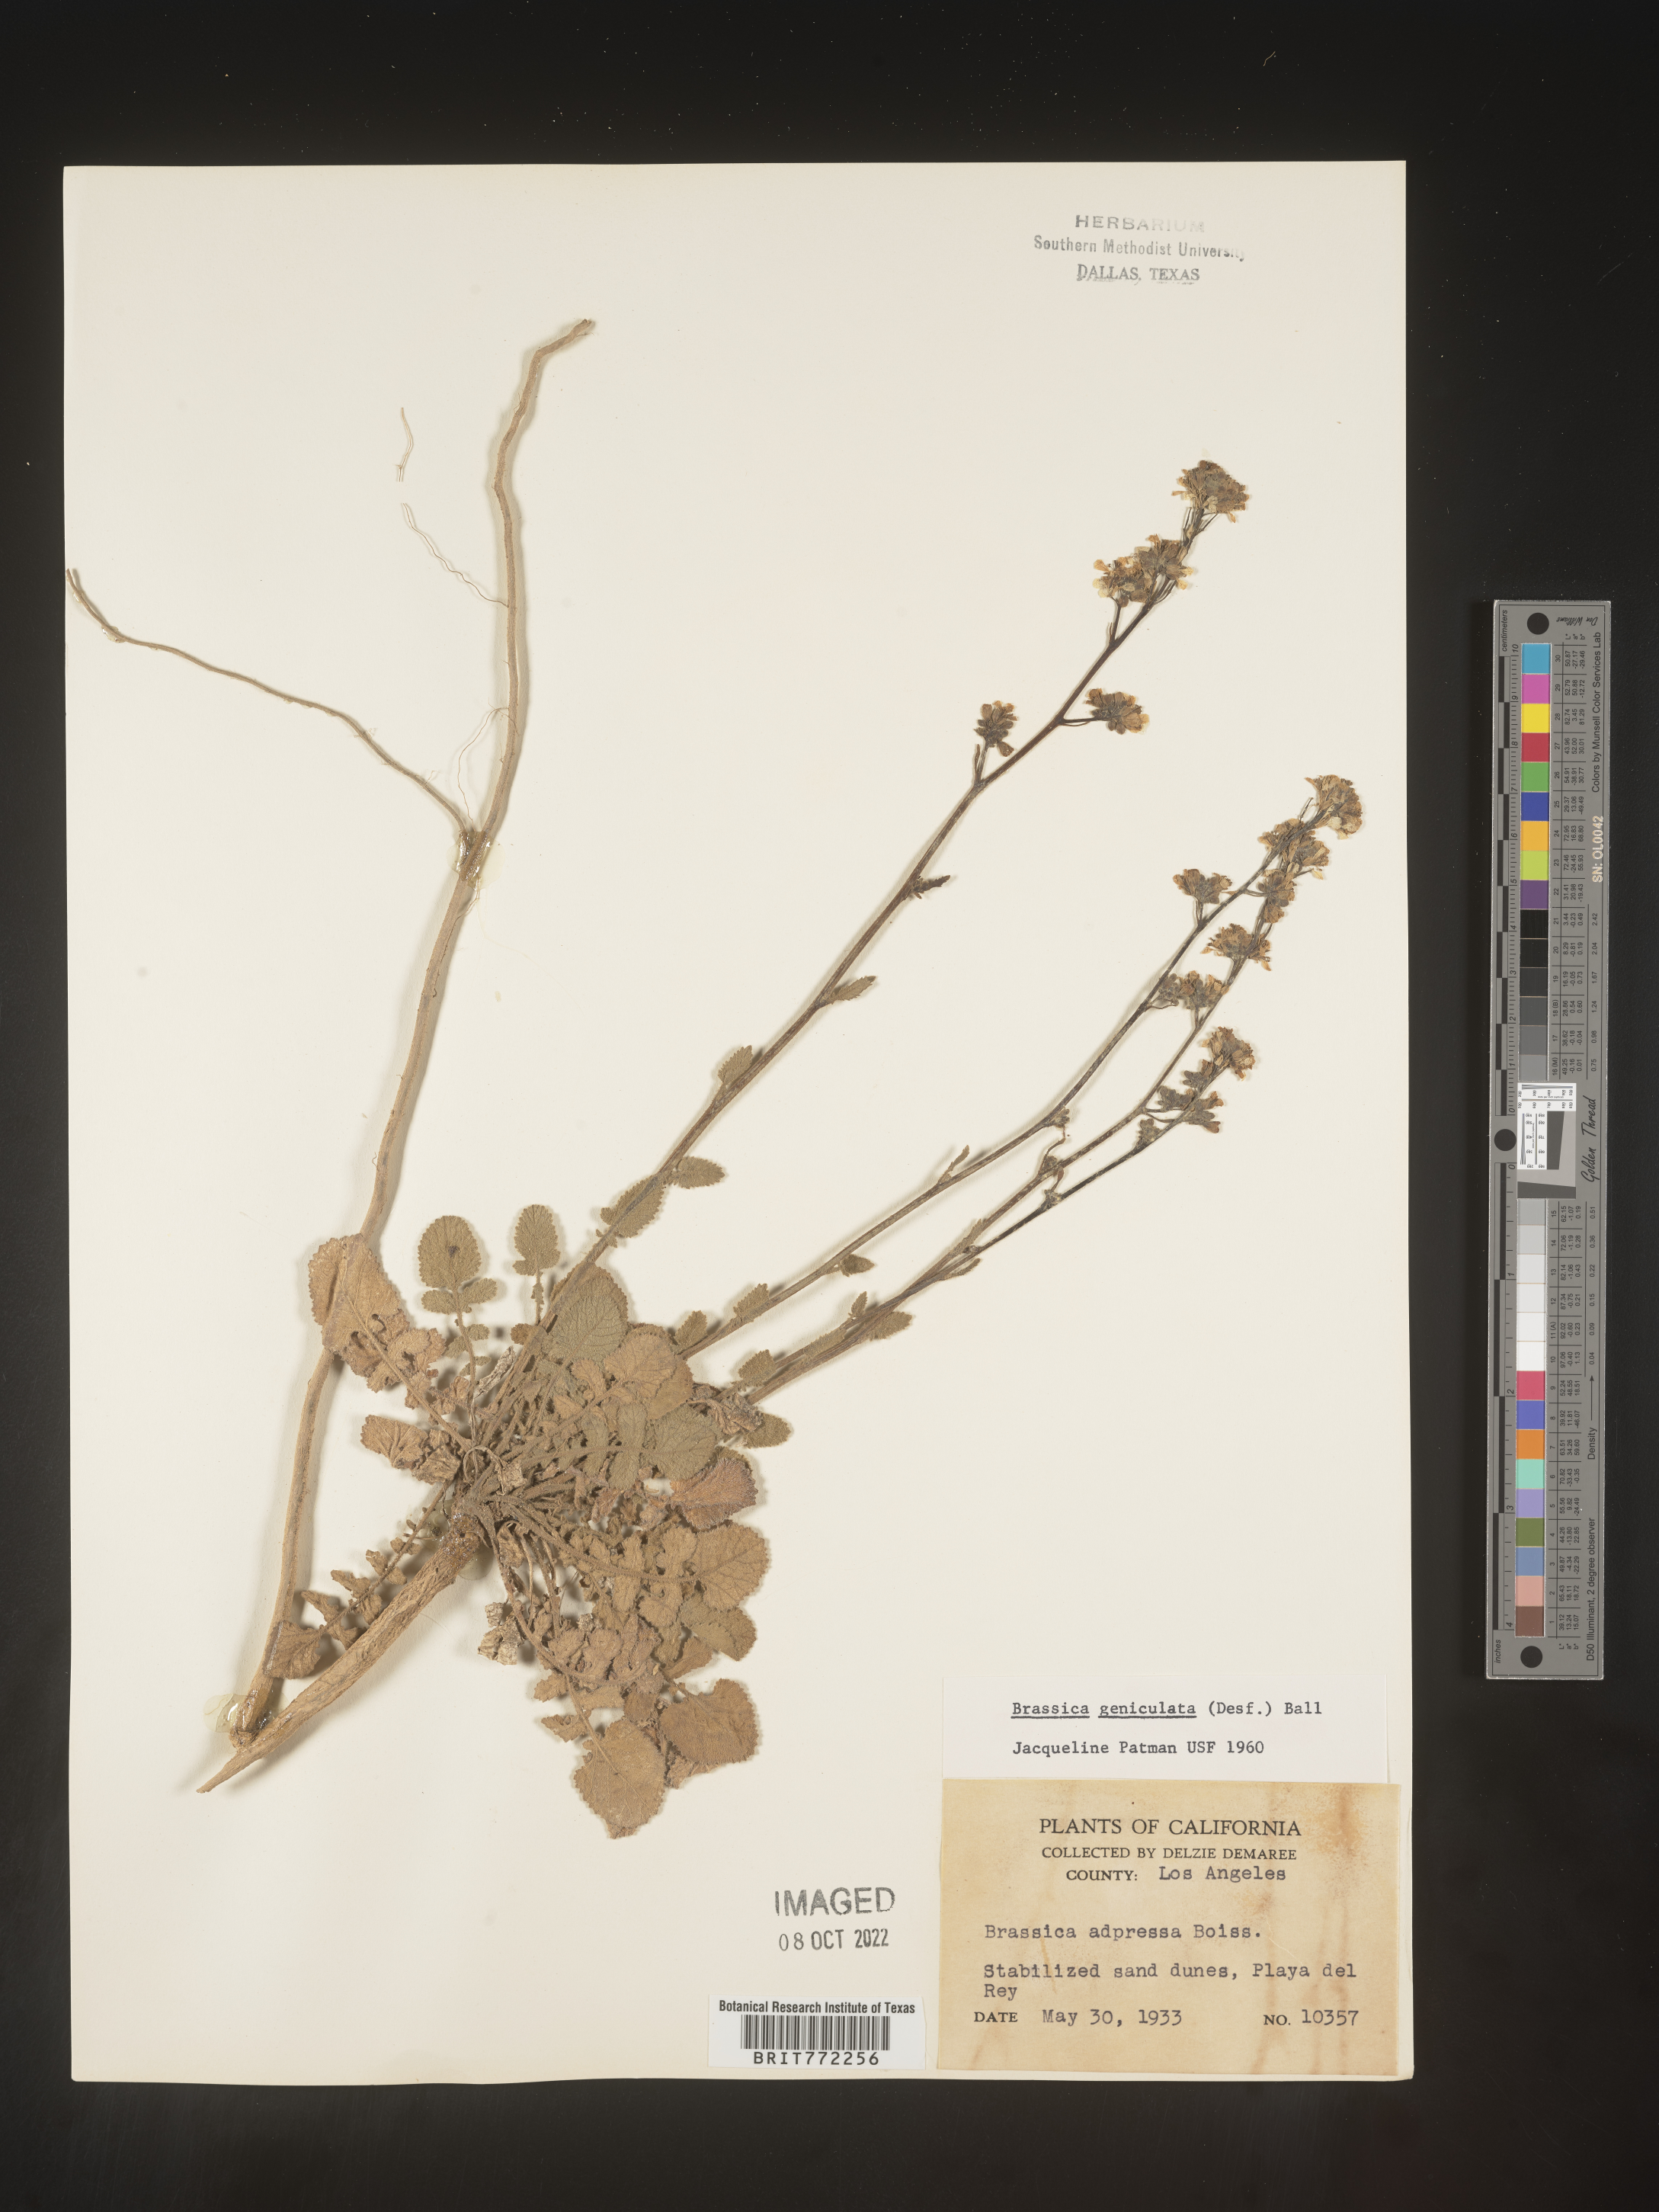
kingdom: Plantae
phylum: Tracheophyta
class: Magnoliopsida
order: Brassicales
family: Brassicaceae
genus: Hirschfeldia
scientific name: Hirschfeldia incana
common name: Hoary mustard
